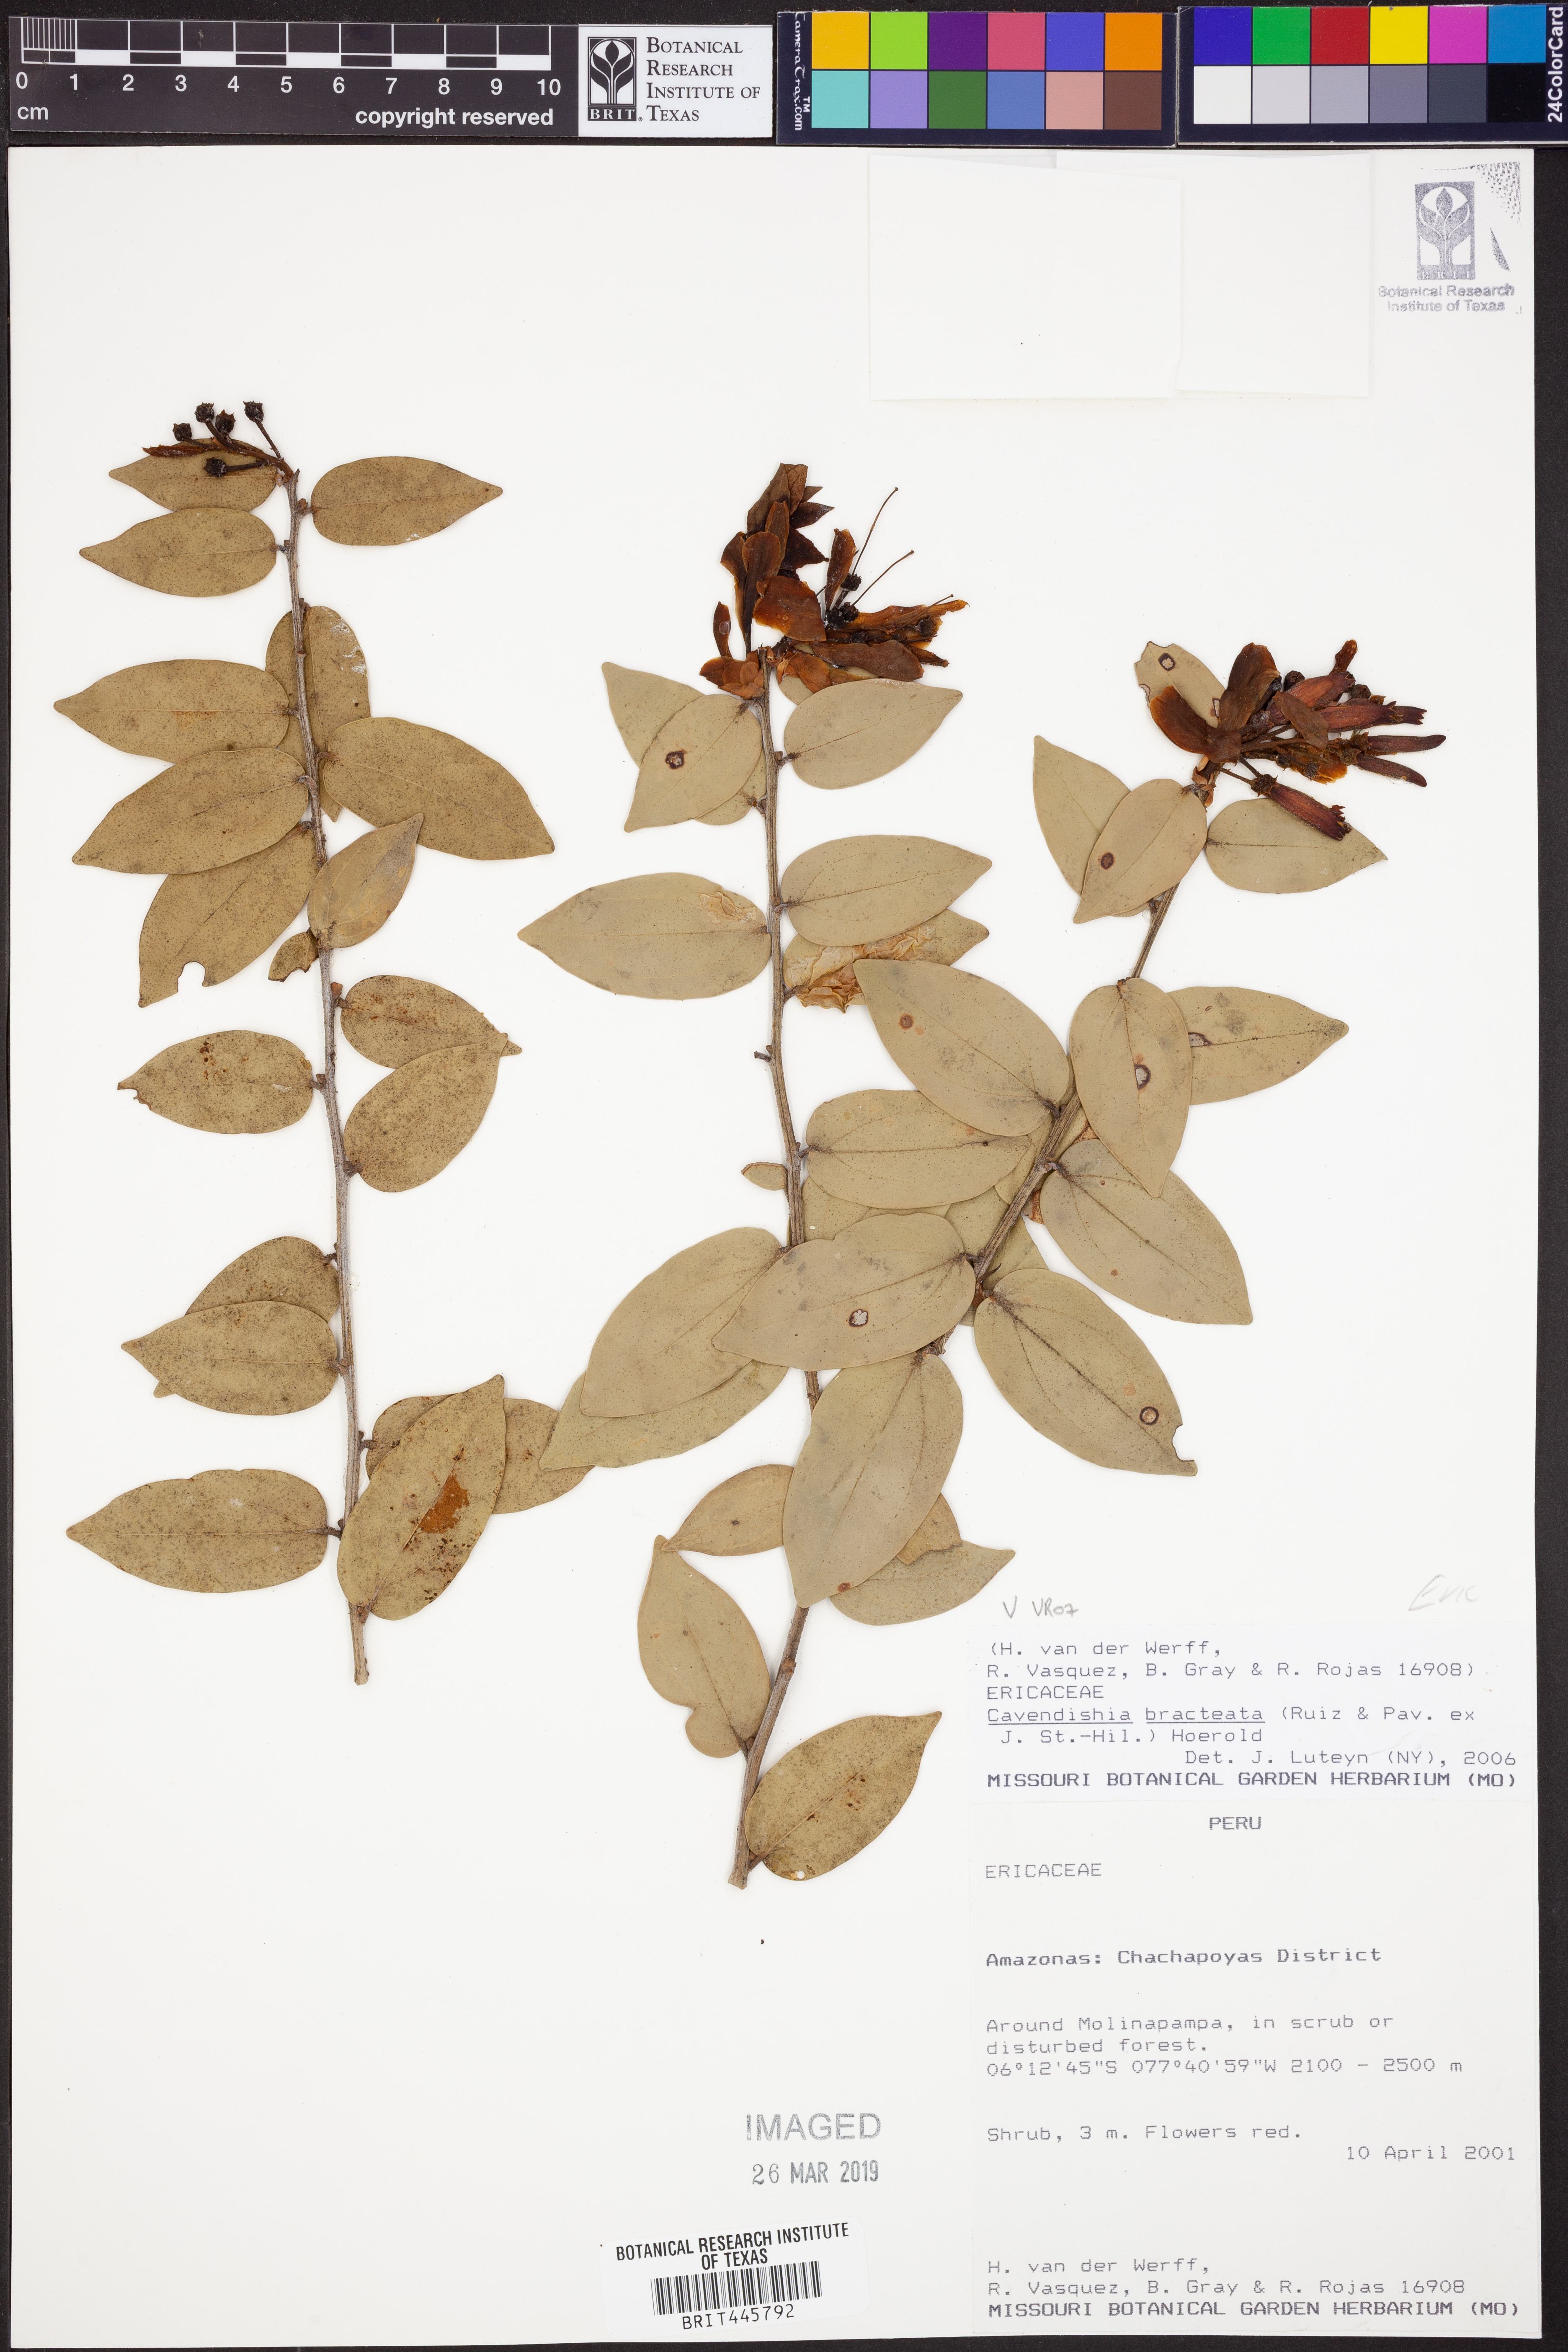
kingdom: Plantae
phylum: Tracheophyta
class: Magnoliopsida
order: Ericales
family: Ericaceae
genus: Cavendishia
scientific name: Cavendishia bracteata
